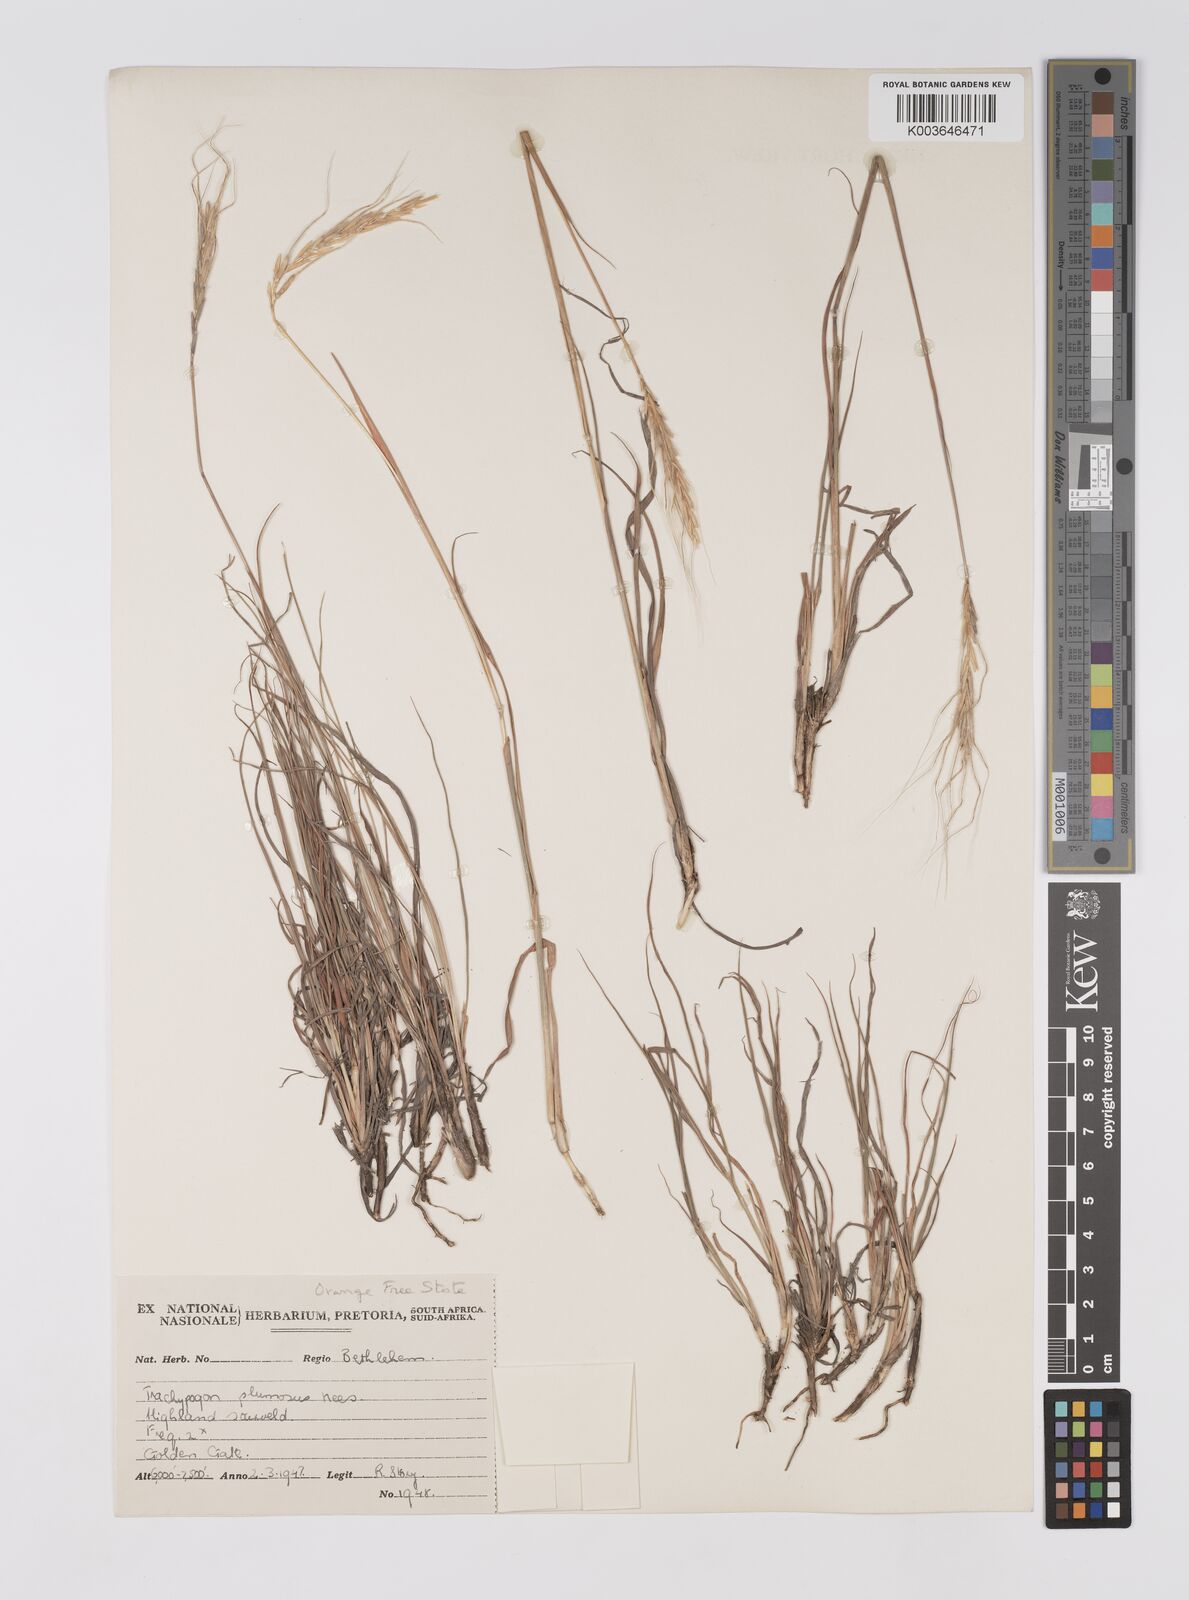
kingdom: Plantae
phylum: Tracheophyta
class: Liliopsida
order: Poales
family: Poaceae
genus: Trachypogon
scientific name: Trachypogon spicatus
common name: Crinkle-awn
